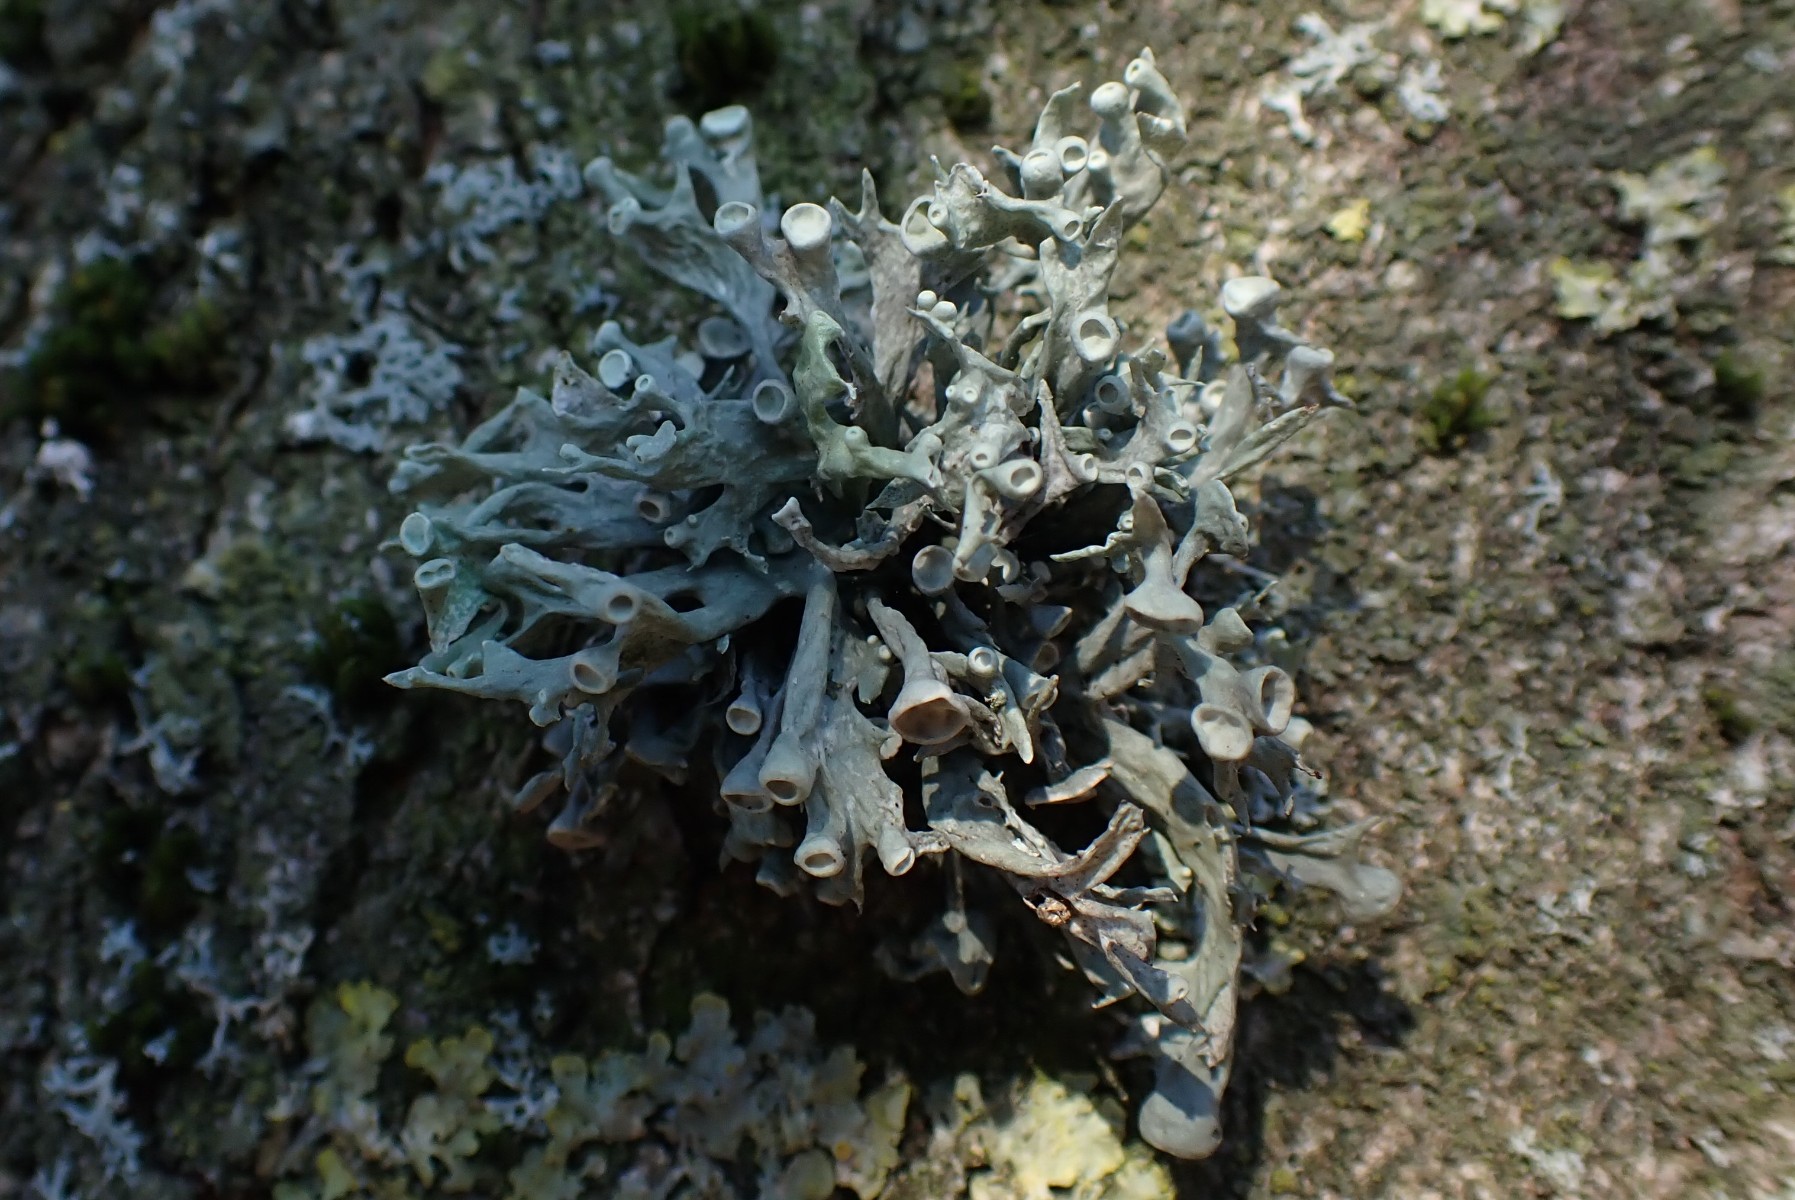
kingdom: Fungi
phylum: Ascomycota
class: Lecanoromycetes
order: Lecanorales
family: Ramalinaceae
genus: Ramalina
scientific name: Ramalina fastigiata
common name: tue-grenlav
